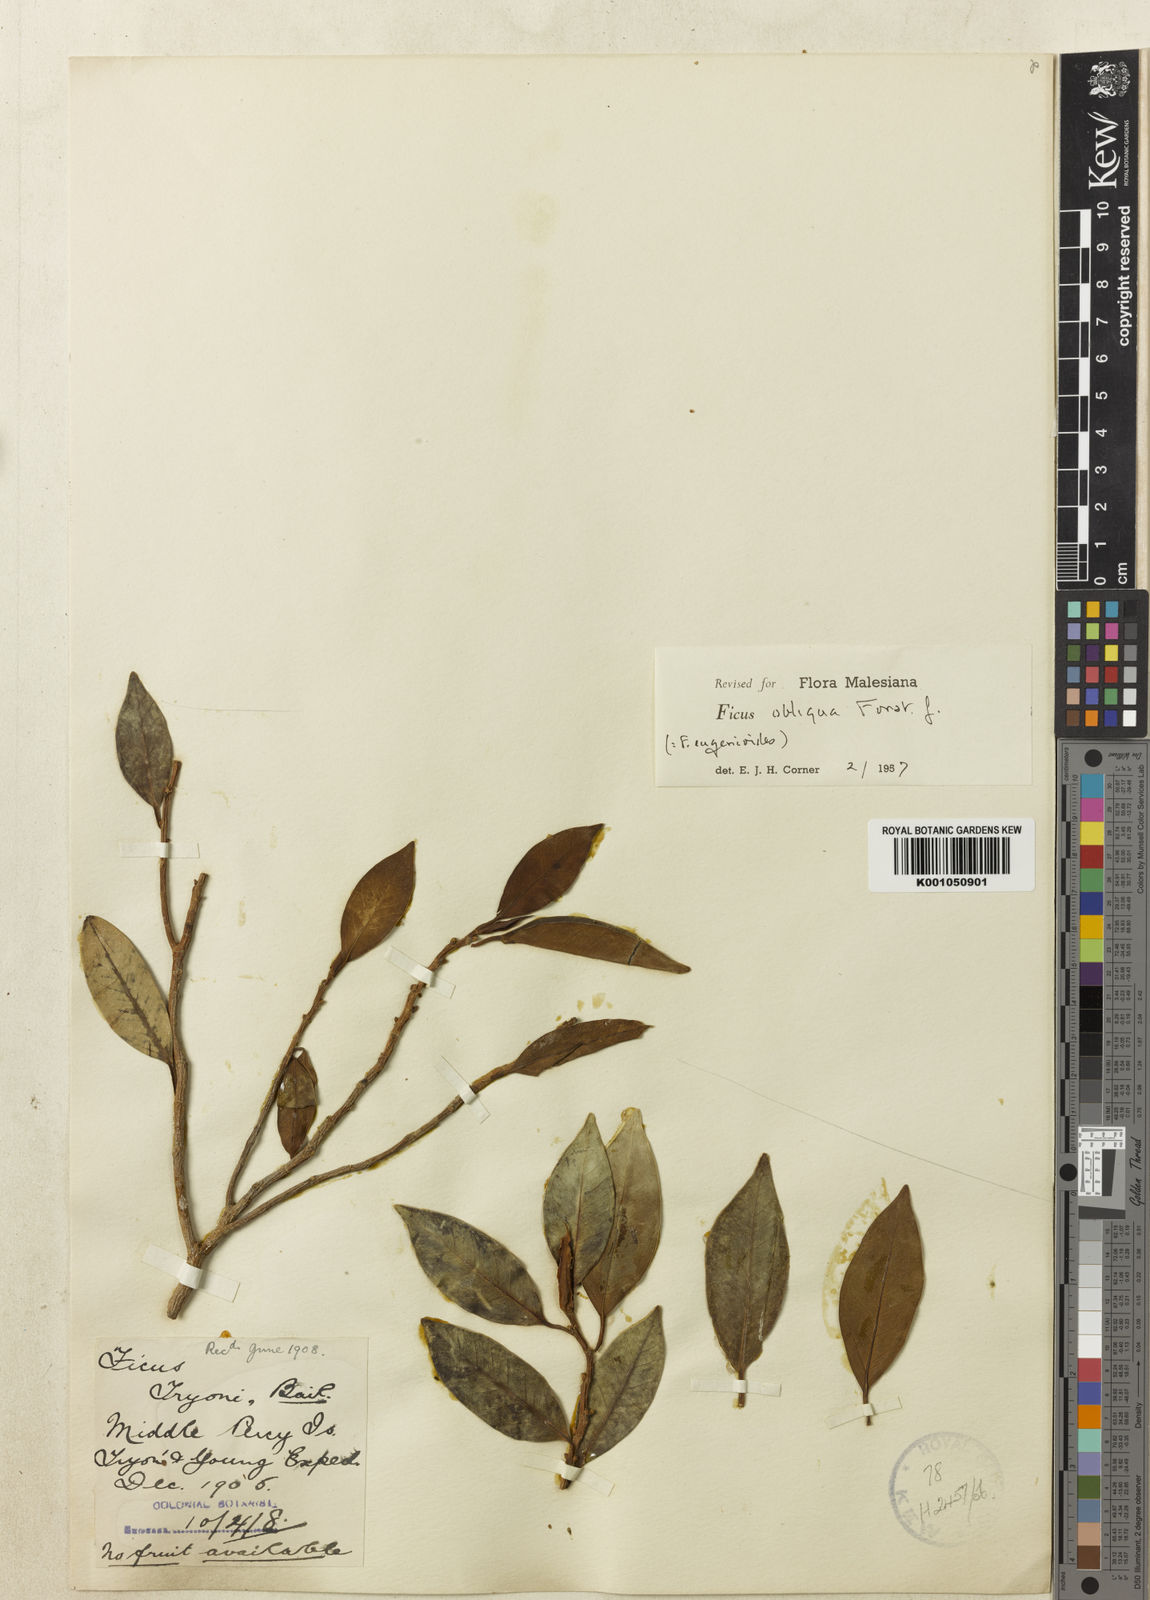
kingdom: Plantae
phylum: Tracheophyta
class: Magnoliopsida
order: Rosales
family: Moraceae
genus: Ficus
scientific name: Ficus obliqua
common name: Small-leaf fig
